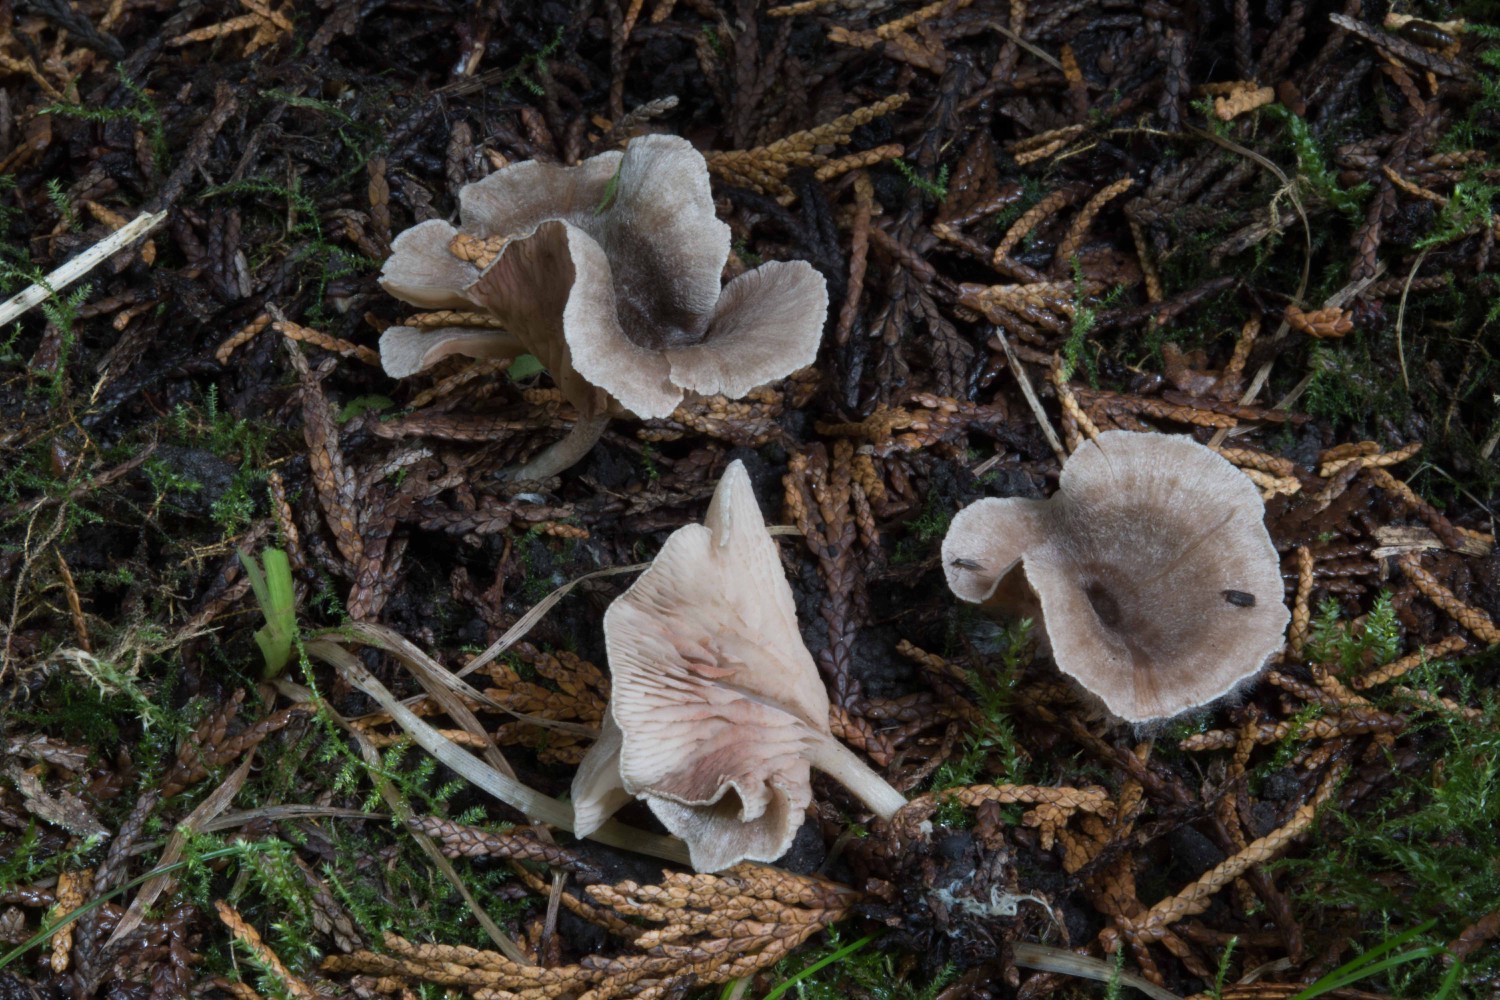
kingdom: Fungi
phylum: Basidiomycota
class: Agaricomycetes
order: Agaricales
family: Entolomataceae
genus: Entoloma
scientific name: Entoloma undatum
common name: bæltet rødblad
